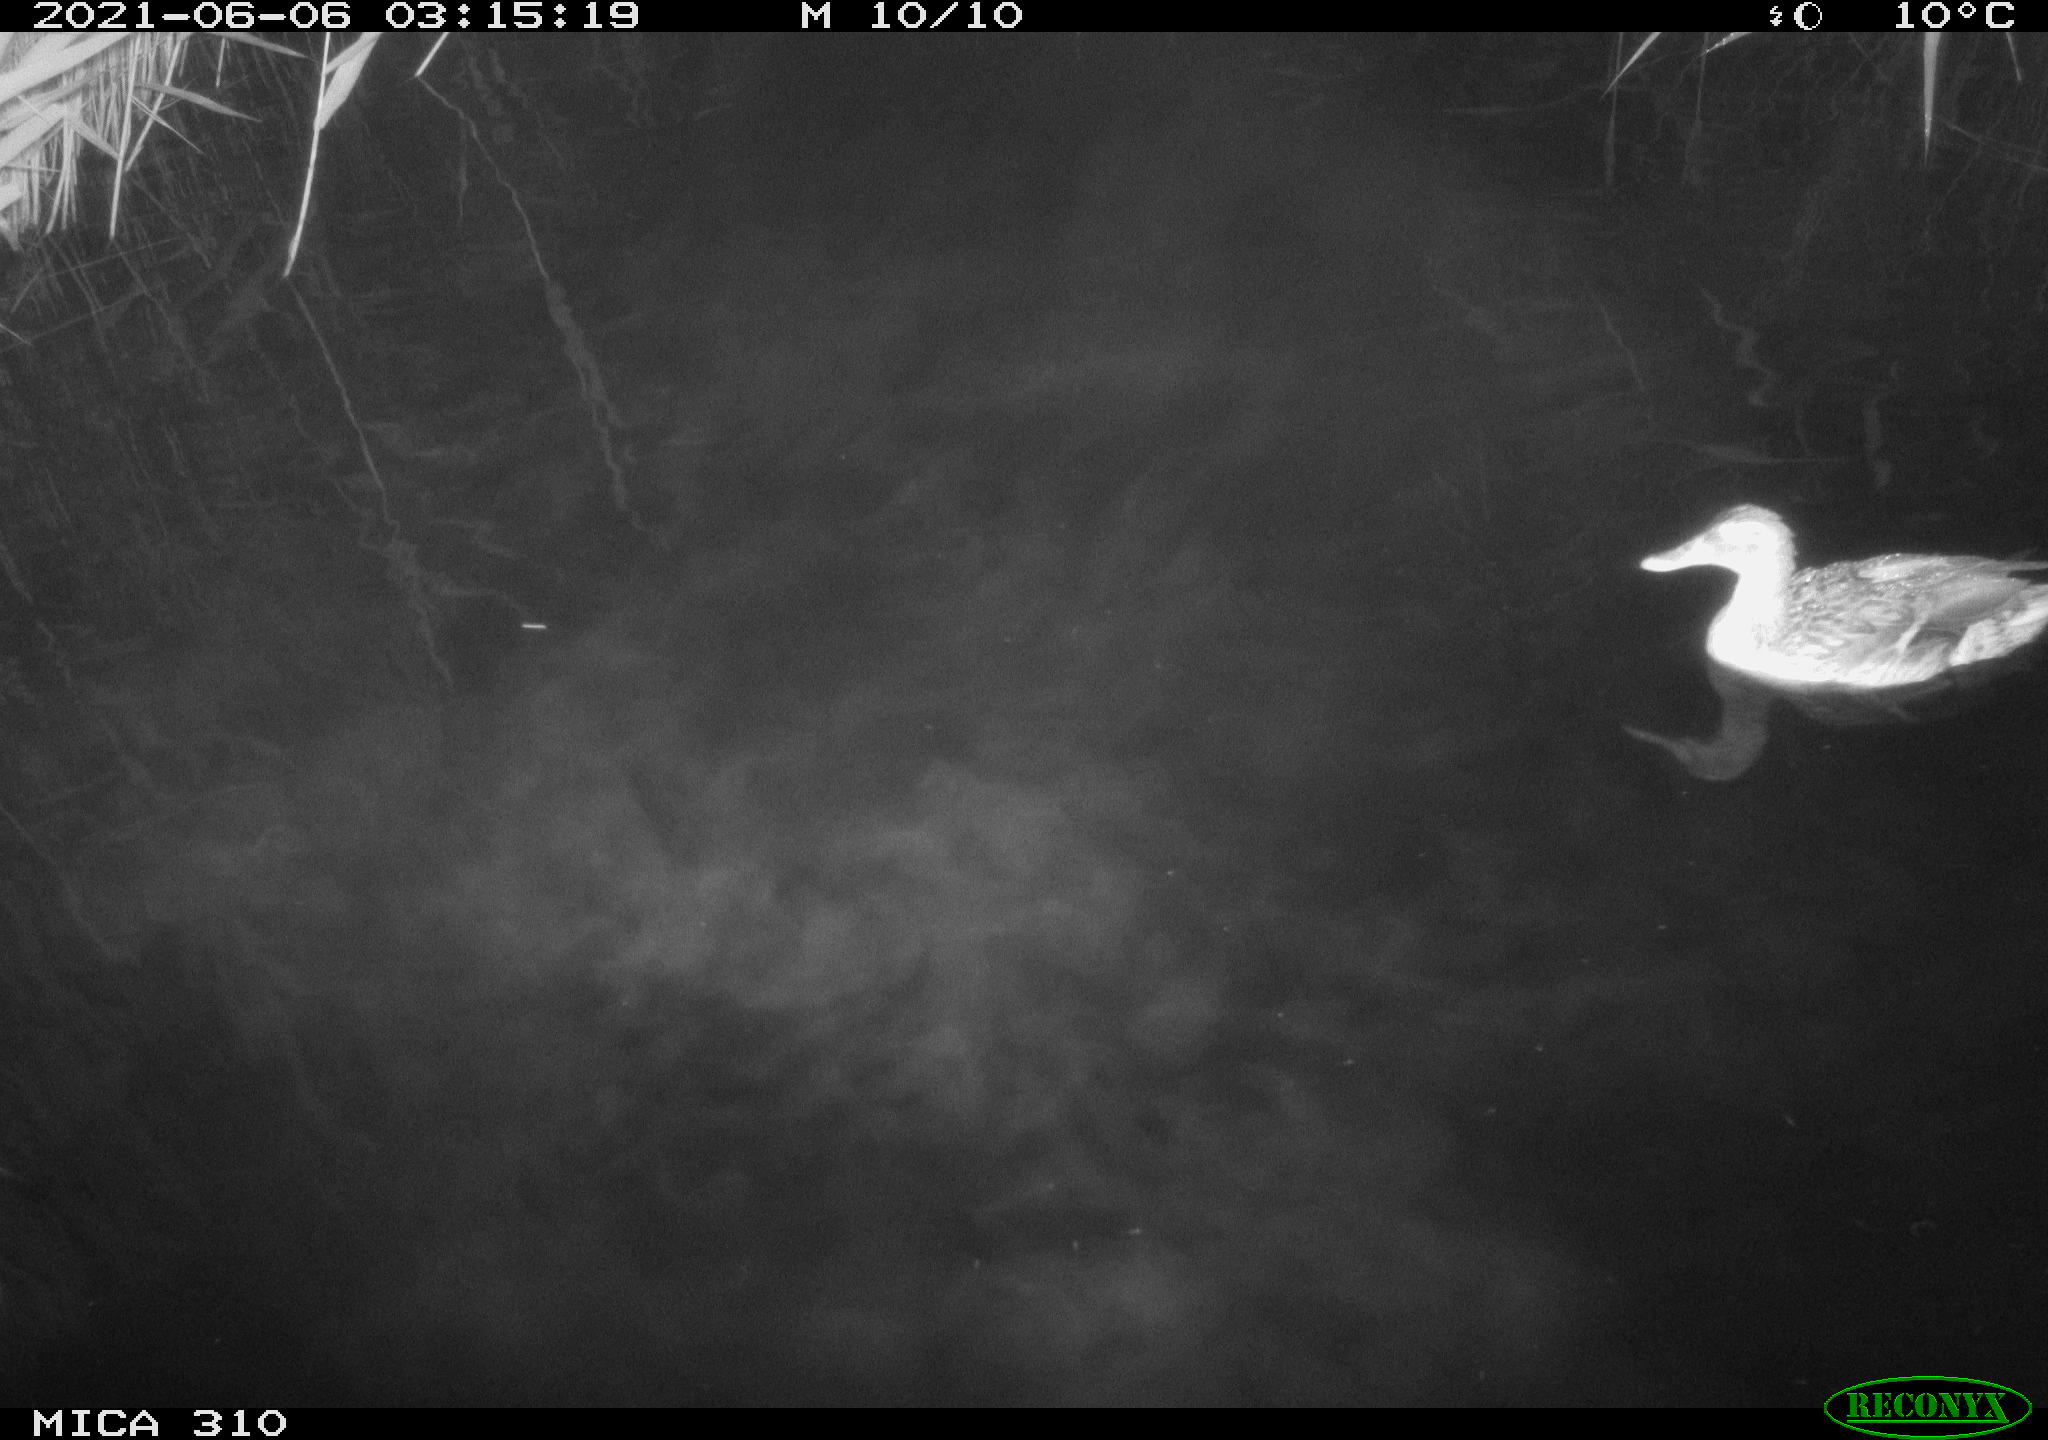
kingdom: Animalia
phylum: Chordata
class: Aves
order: Anseriformes
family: Anatidae
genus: Anas
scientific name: Anas
